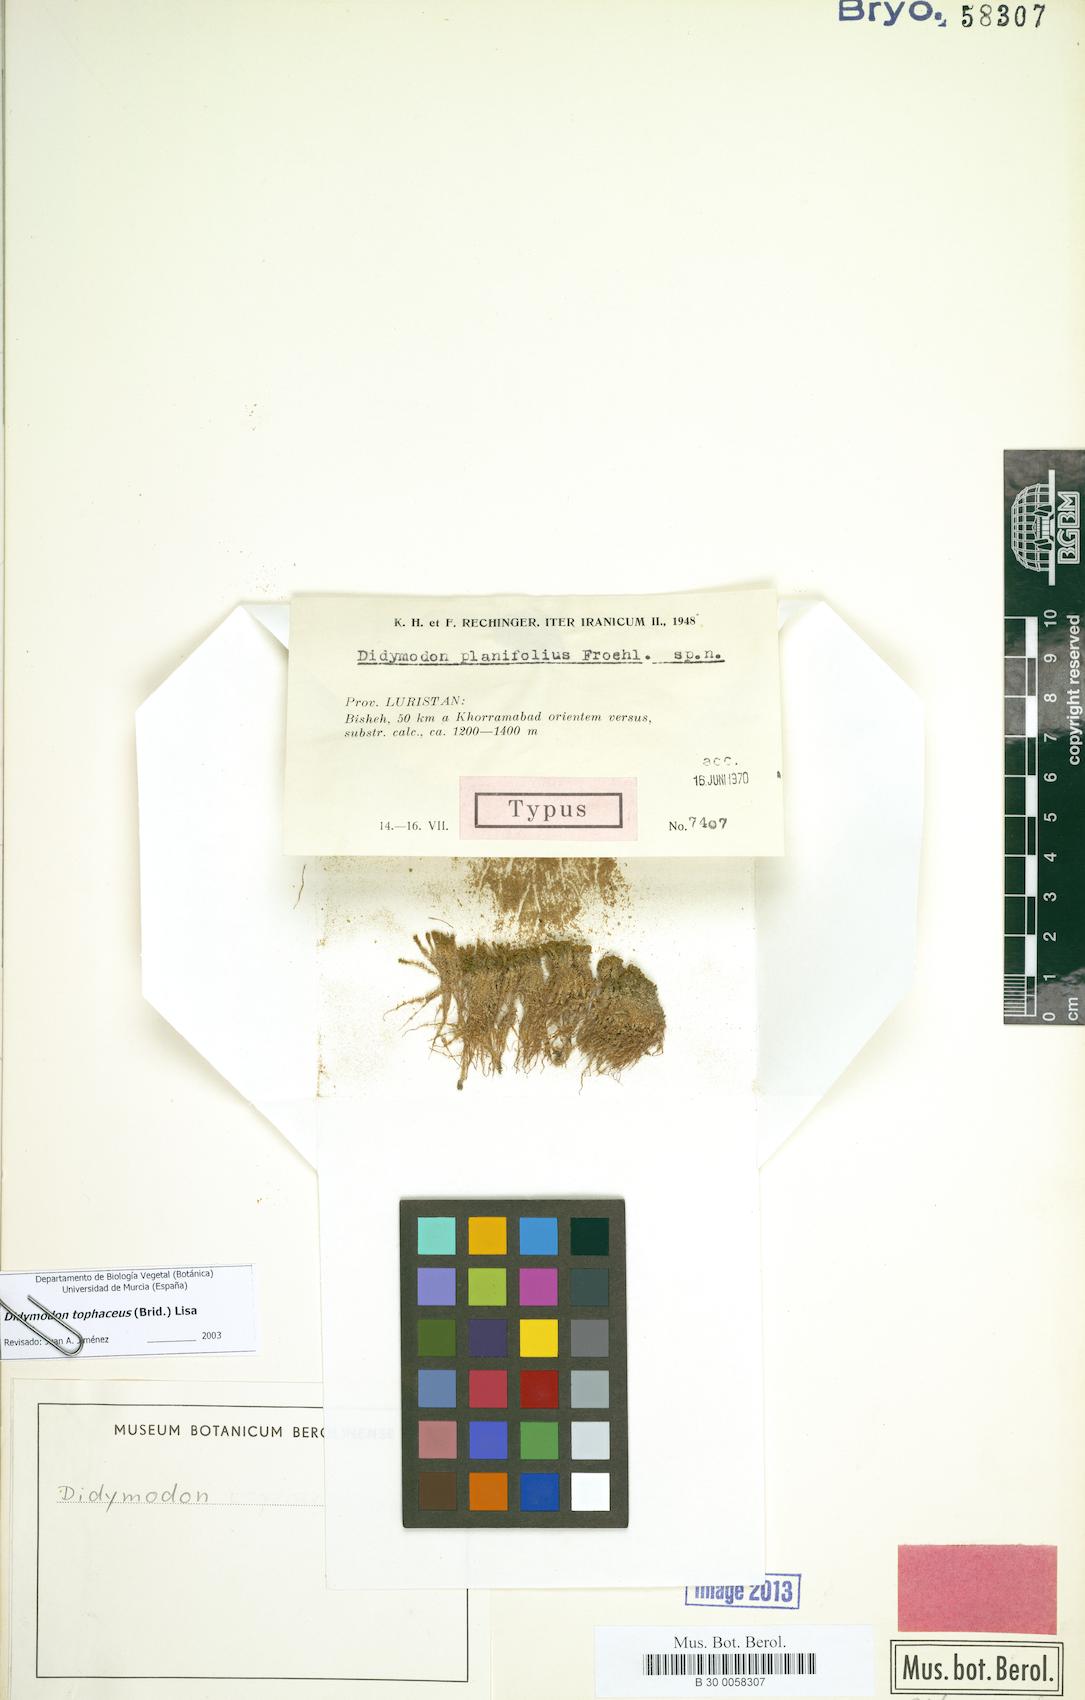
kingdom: Plantae
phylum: Bryophyta
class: Bryopsida
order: Pottiales
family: Pottiaceae
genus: Geheebia
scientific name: Geheebia tophacea
